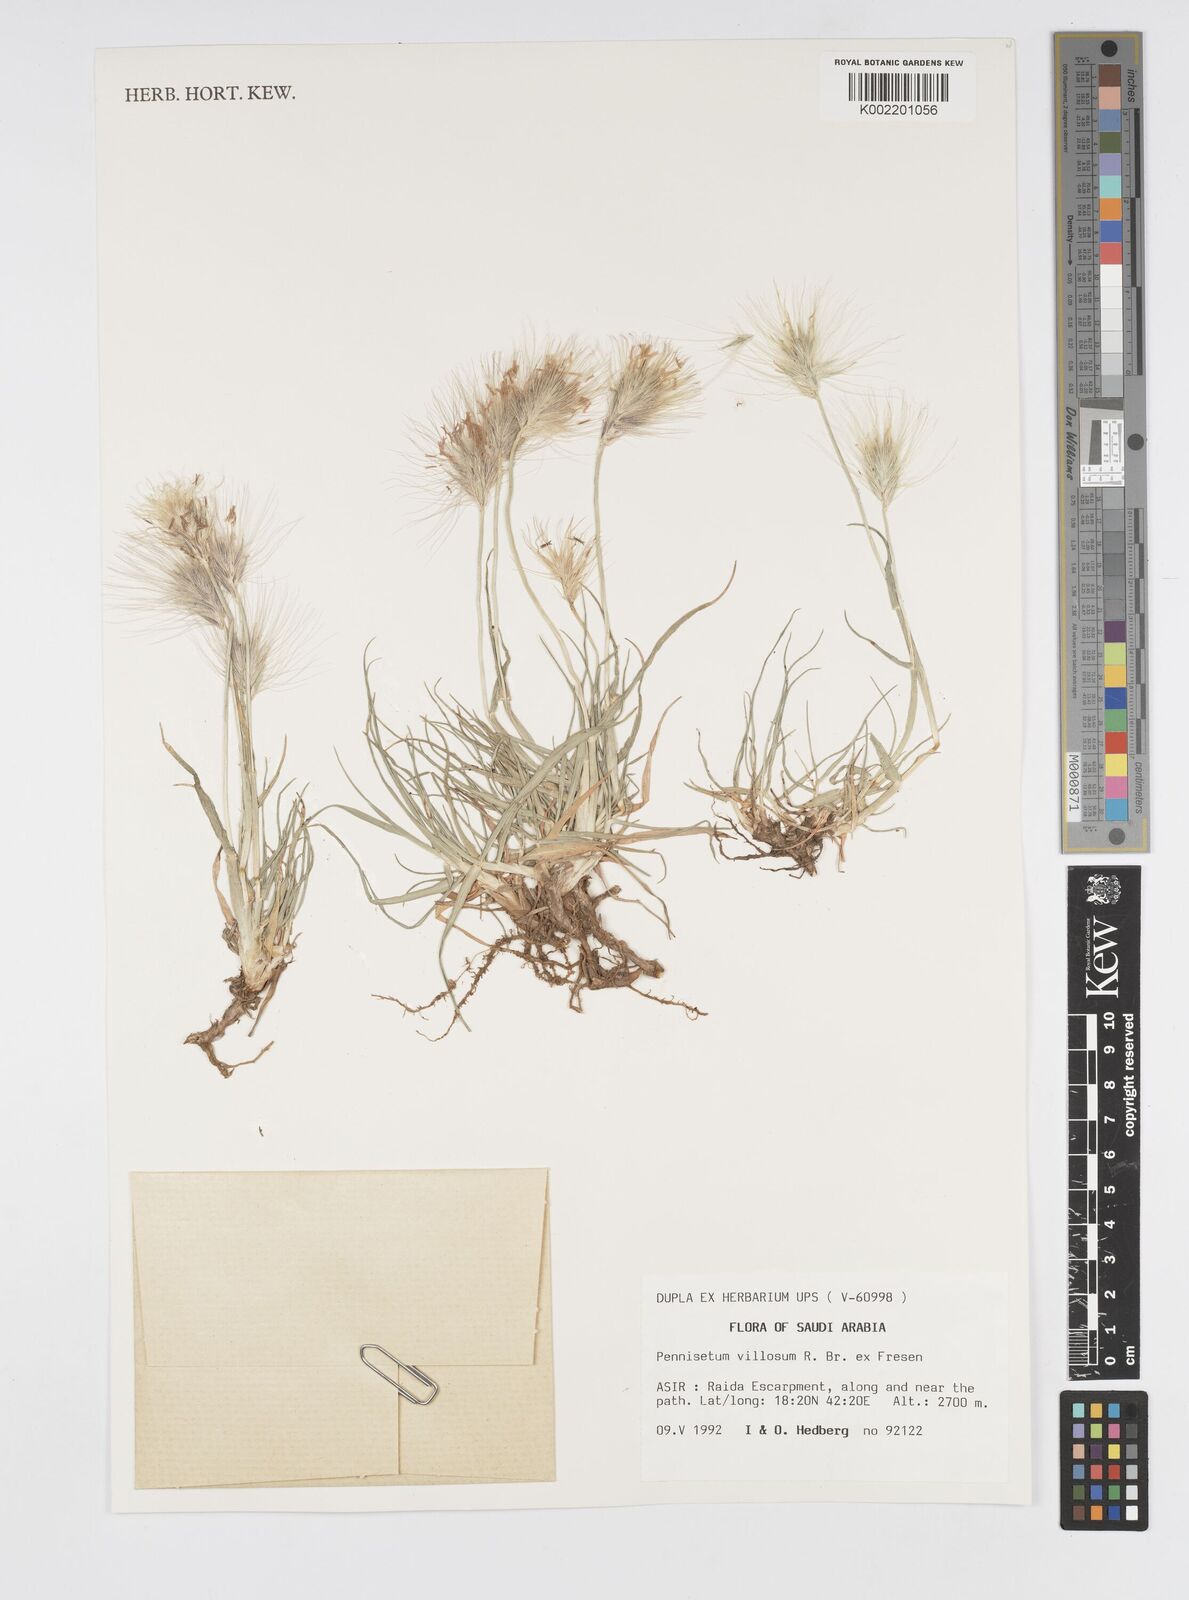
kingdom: Plantae
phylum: Tracheophyta
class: Liliopsida
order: Poales
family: Poaceae
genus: Cenchrus
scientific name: Cenchrus longisetus
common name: Feathertop
